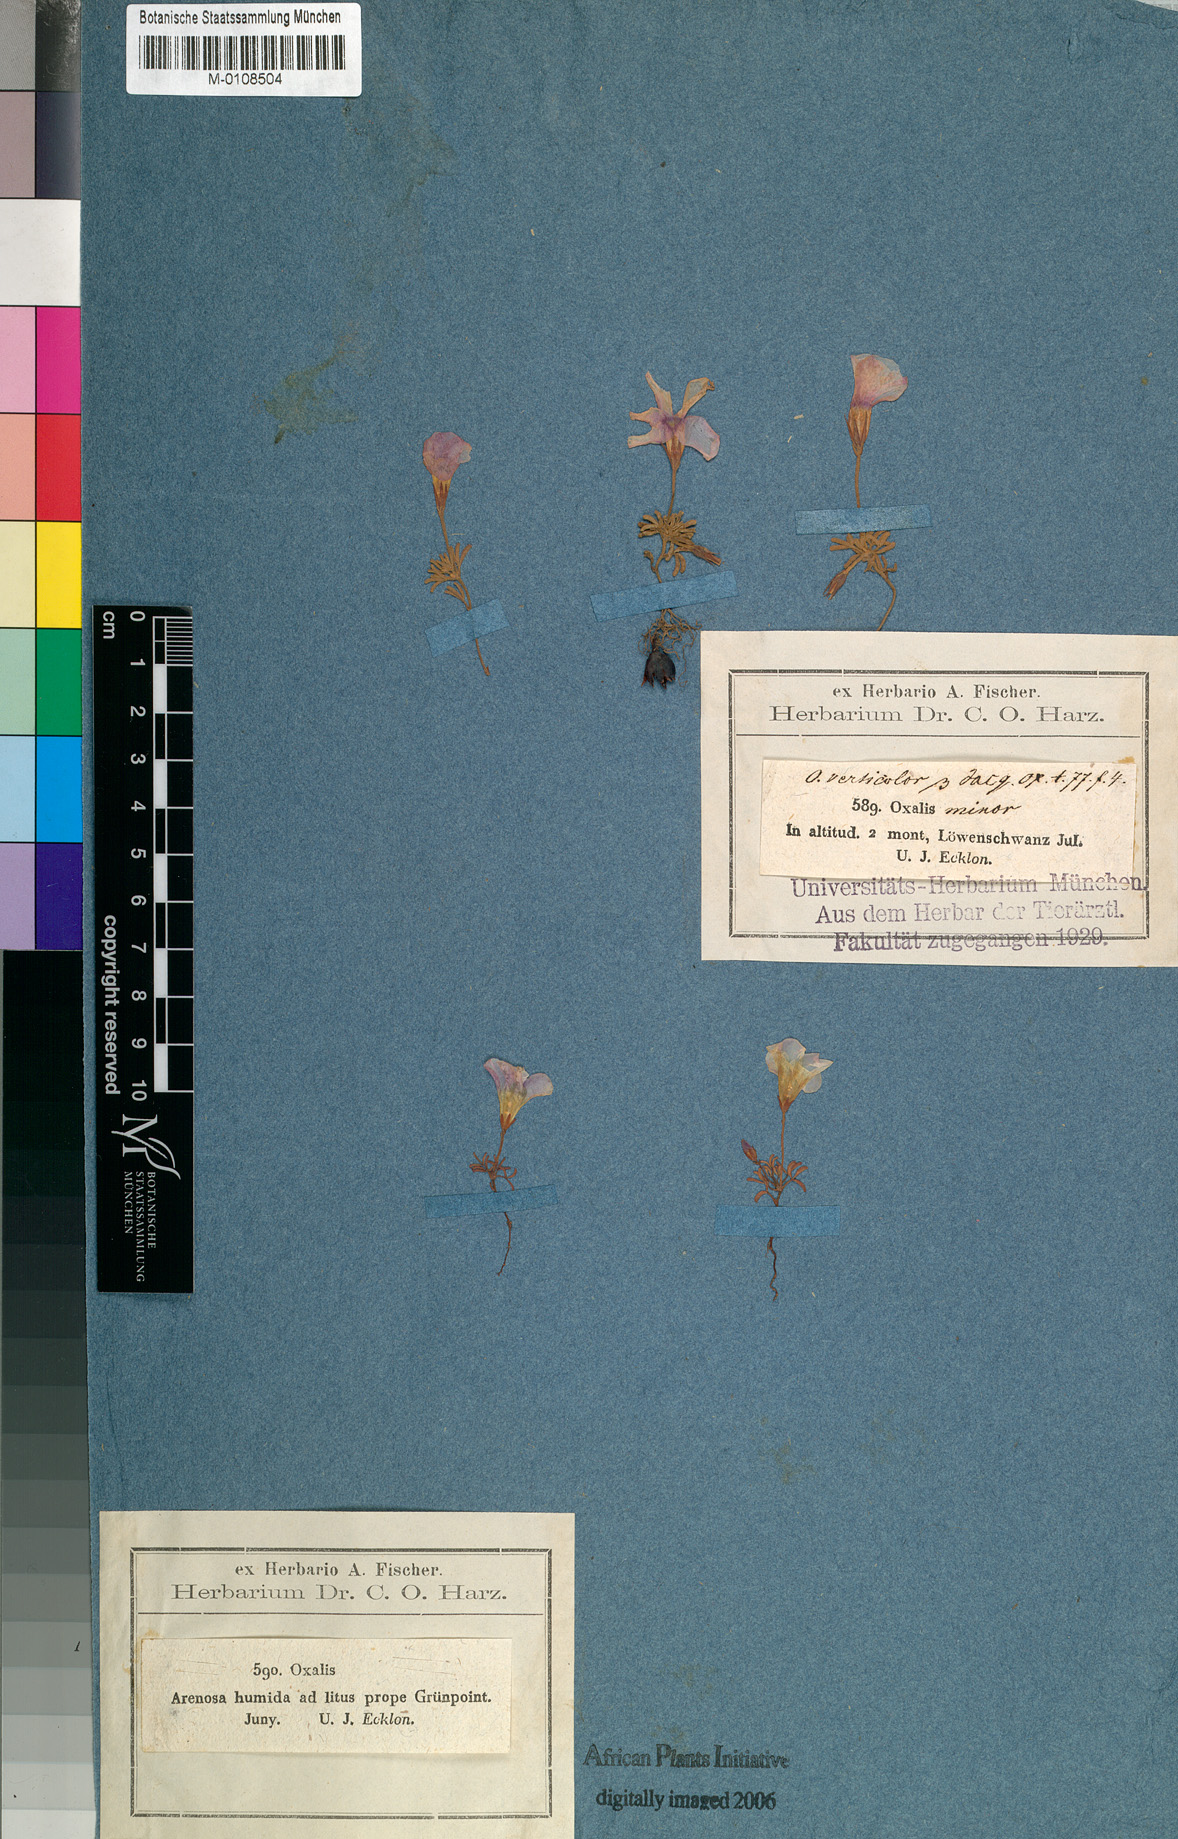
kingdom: Plantae
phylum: Tracheophyta
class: Magnoliopsida
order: Oxalidales
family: Oxalidaceae
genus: Oxalis
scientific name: Oxalis versicolor
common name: Peppermint rock oxalis
